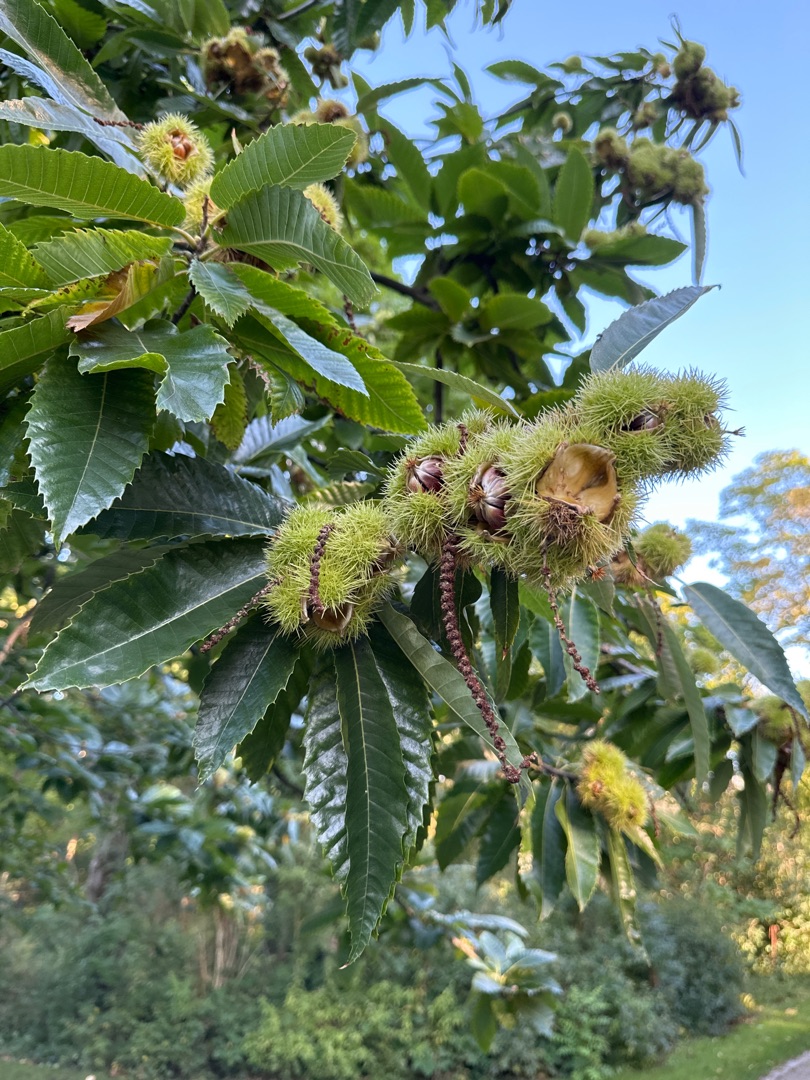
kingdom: Plantae
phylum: Tracheophyta
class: Magnoliopsida
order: Fagales
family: Fagaceae
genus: Castanea
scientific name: Castanea sativa
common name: Ægte kastanie
